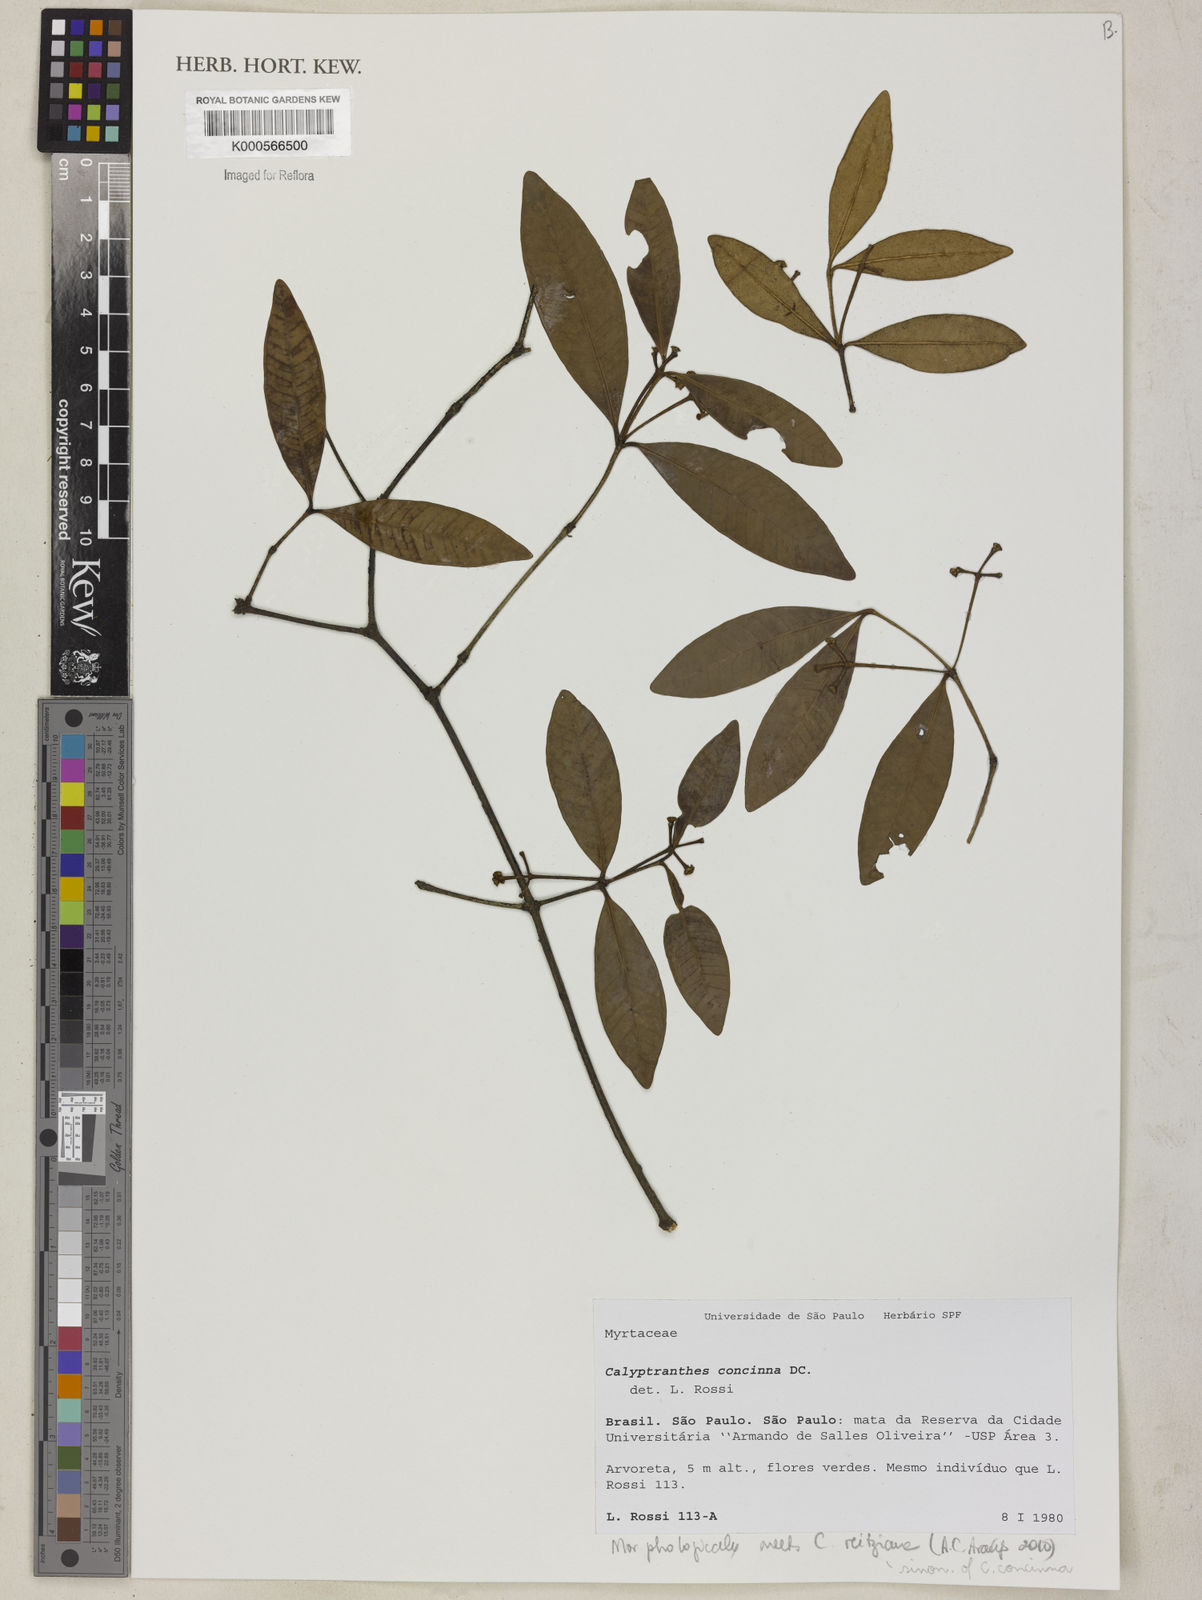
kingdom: Plantae
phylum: Tracheophyta
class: Magnoliopsida
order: Myrtales
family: Myrtaceae
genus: Myrcia
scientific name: Myrcia cruciflora
